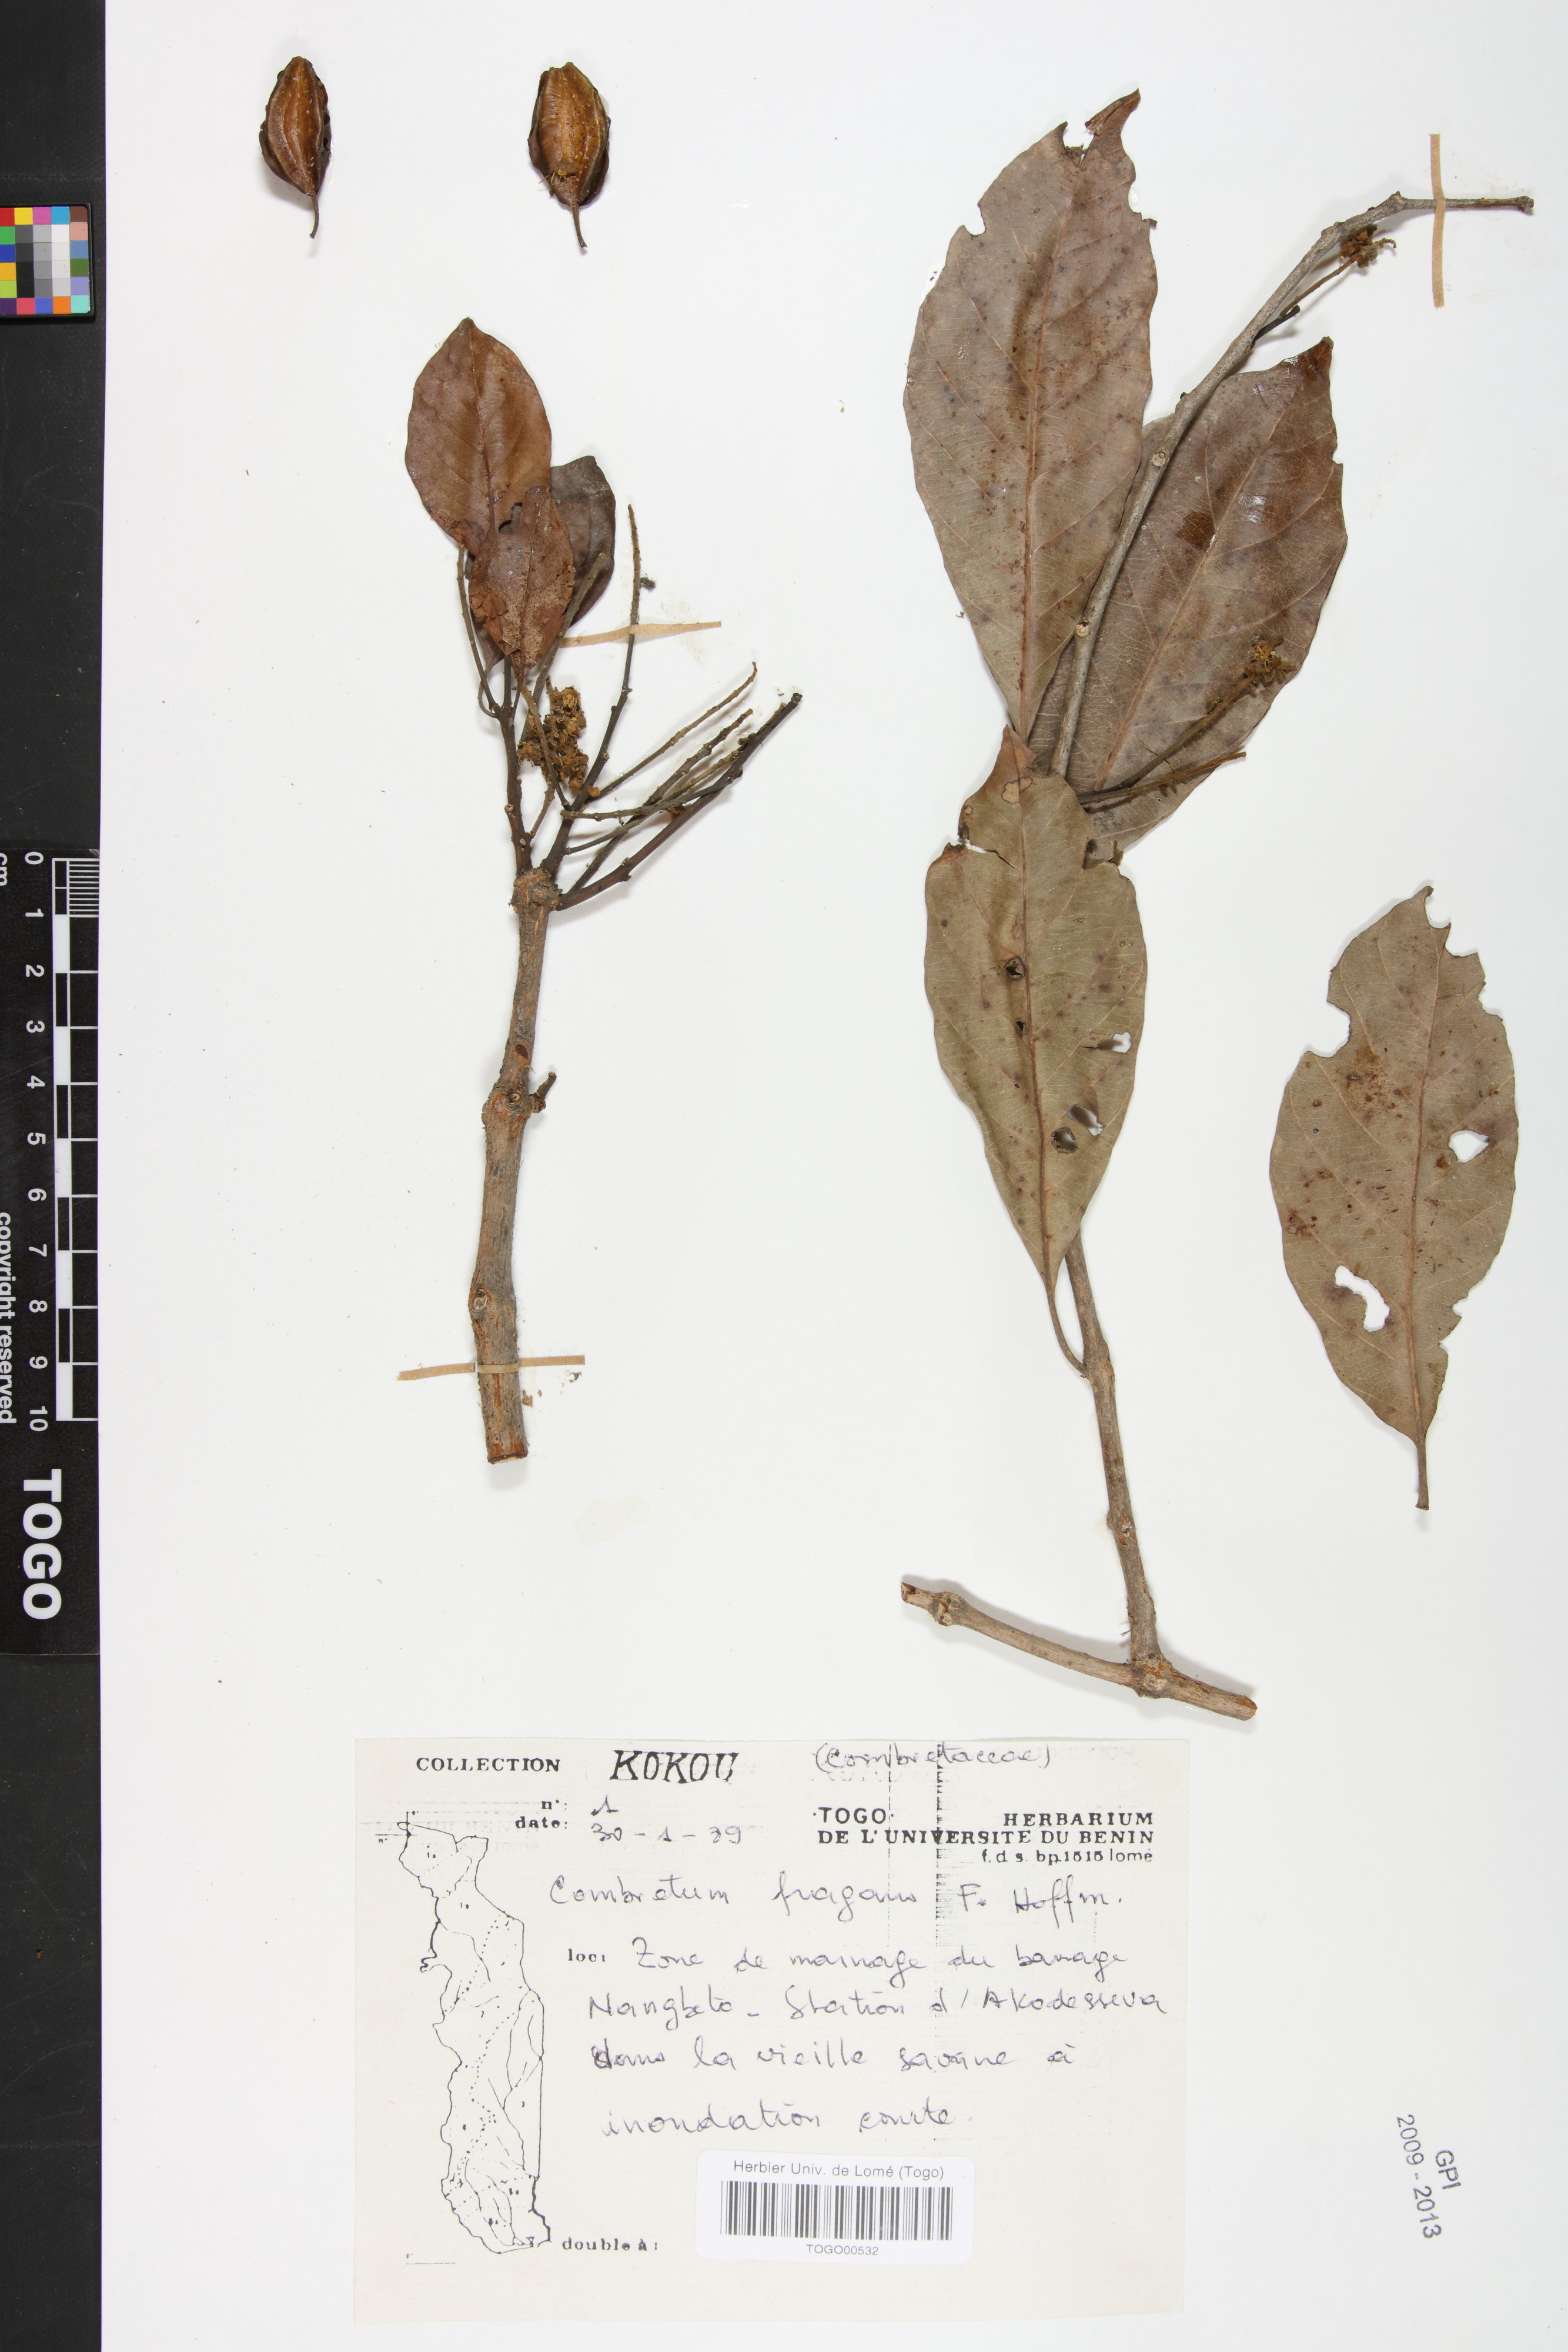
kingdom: Plantae
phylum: Tracheophyta
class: Magnoliopsida
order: Myrtales
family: Combretaceae
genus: Combretum
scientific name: Combretum adenogonium
